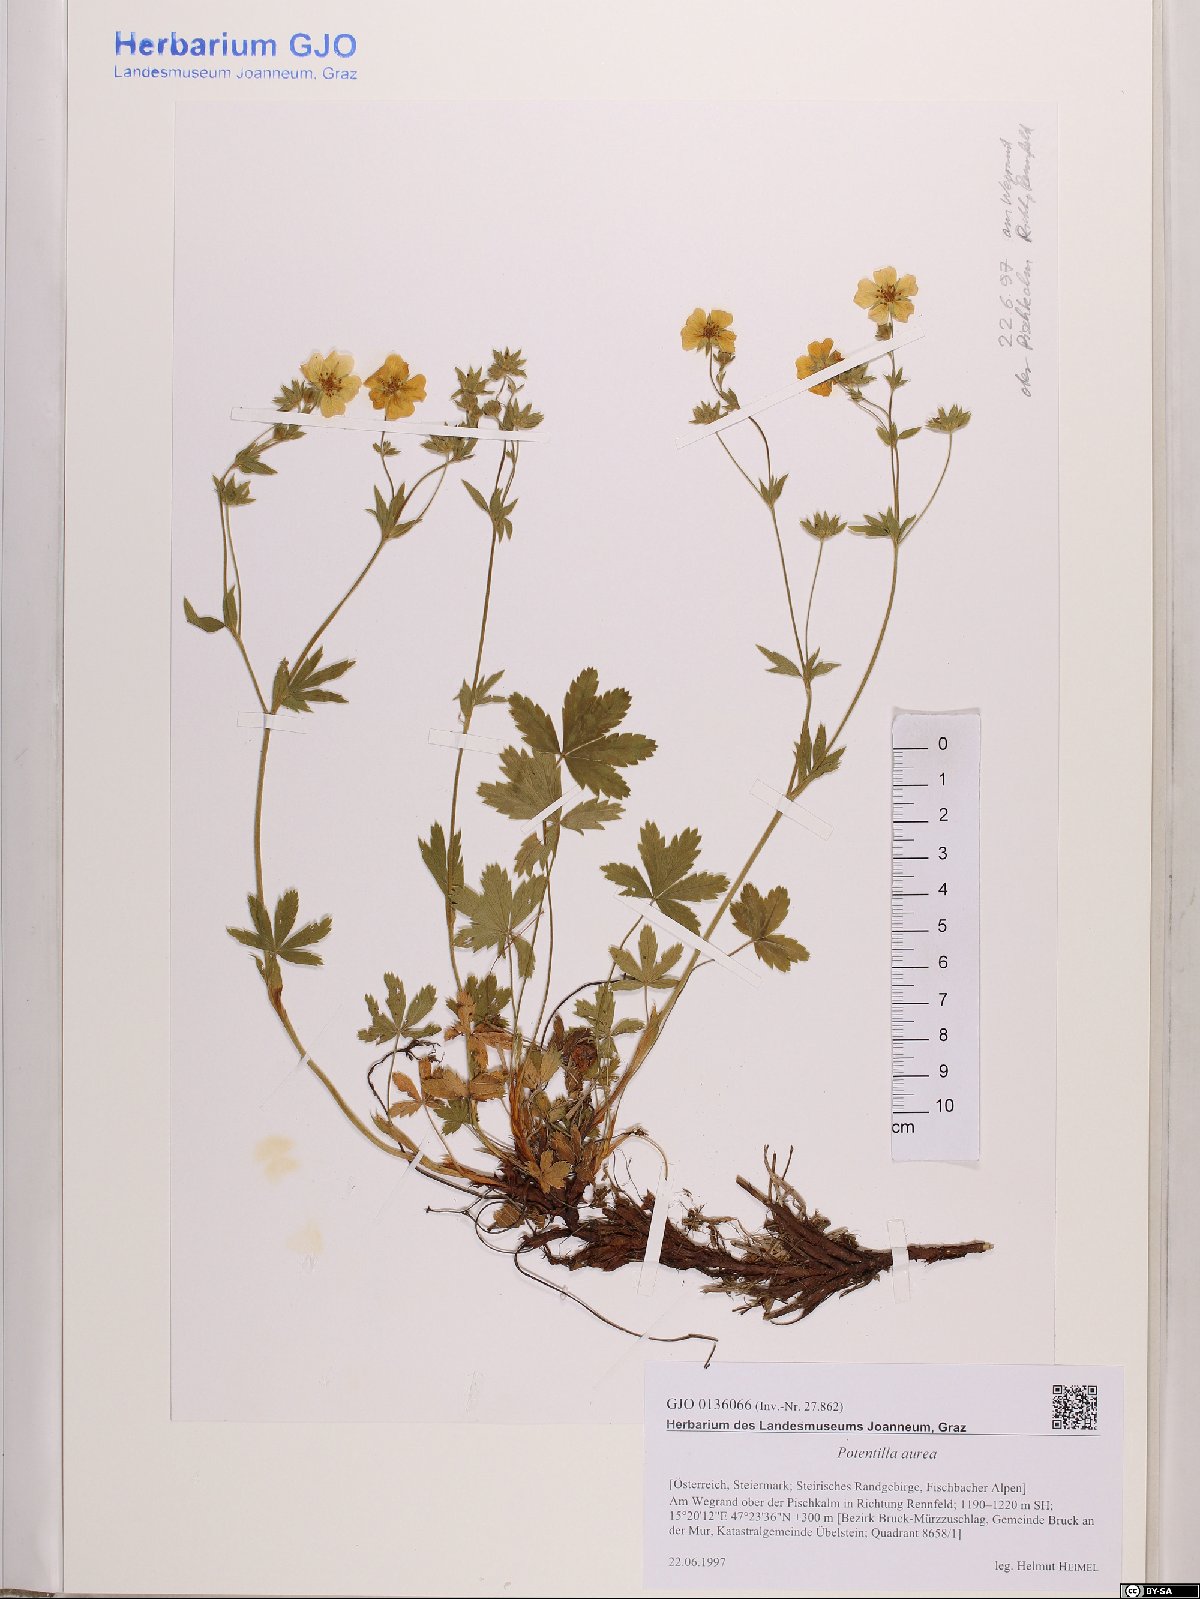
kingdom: Plantae
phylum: Tracheophyta
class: Magnoliopsida
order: Rosales
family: Rosaceae
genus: Potentilla
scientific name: Potentilla aurea
